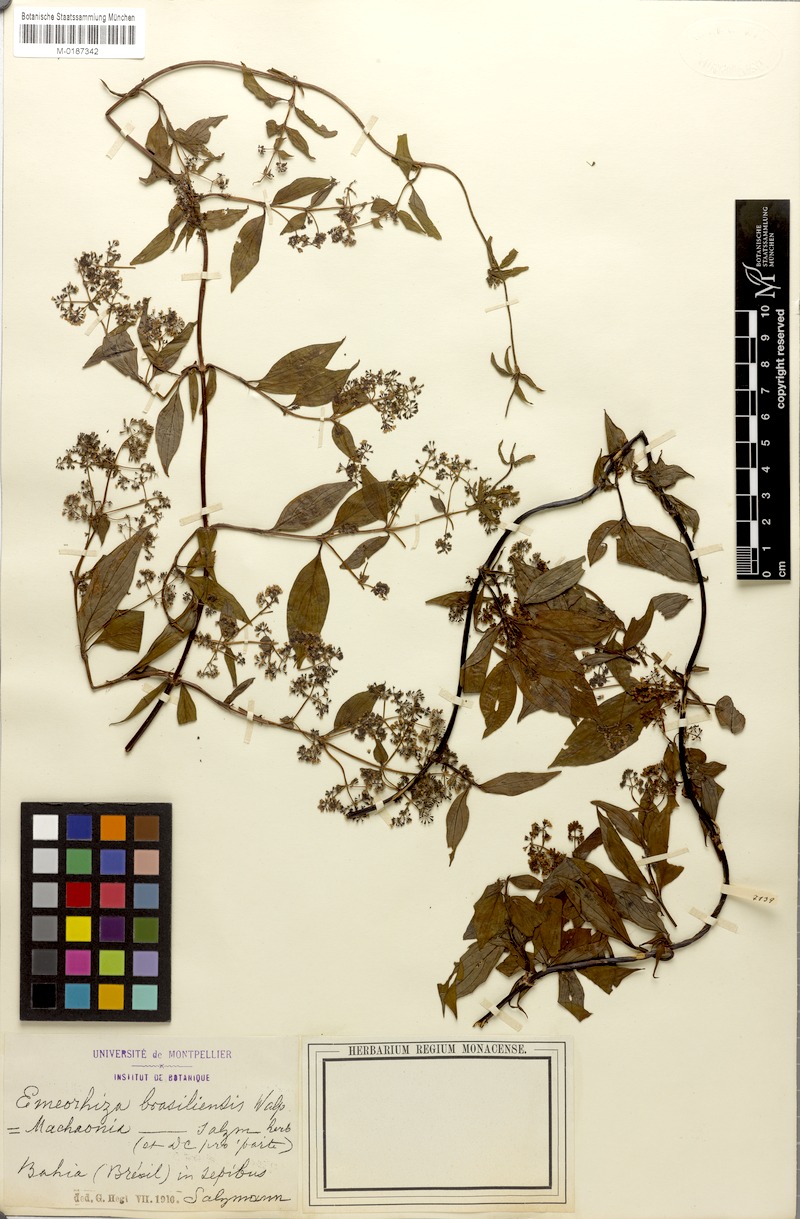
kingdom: Plantae
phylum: Tracheophyta
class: Magnoliopsida
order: Gentianales
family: Rubiaceae
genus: Machaonia
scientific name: Machaonia brasiliensis
